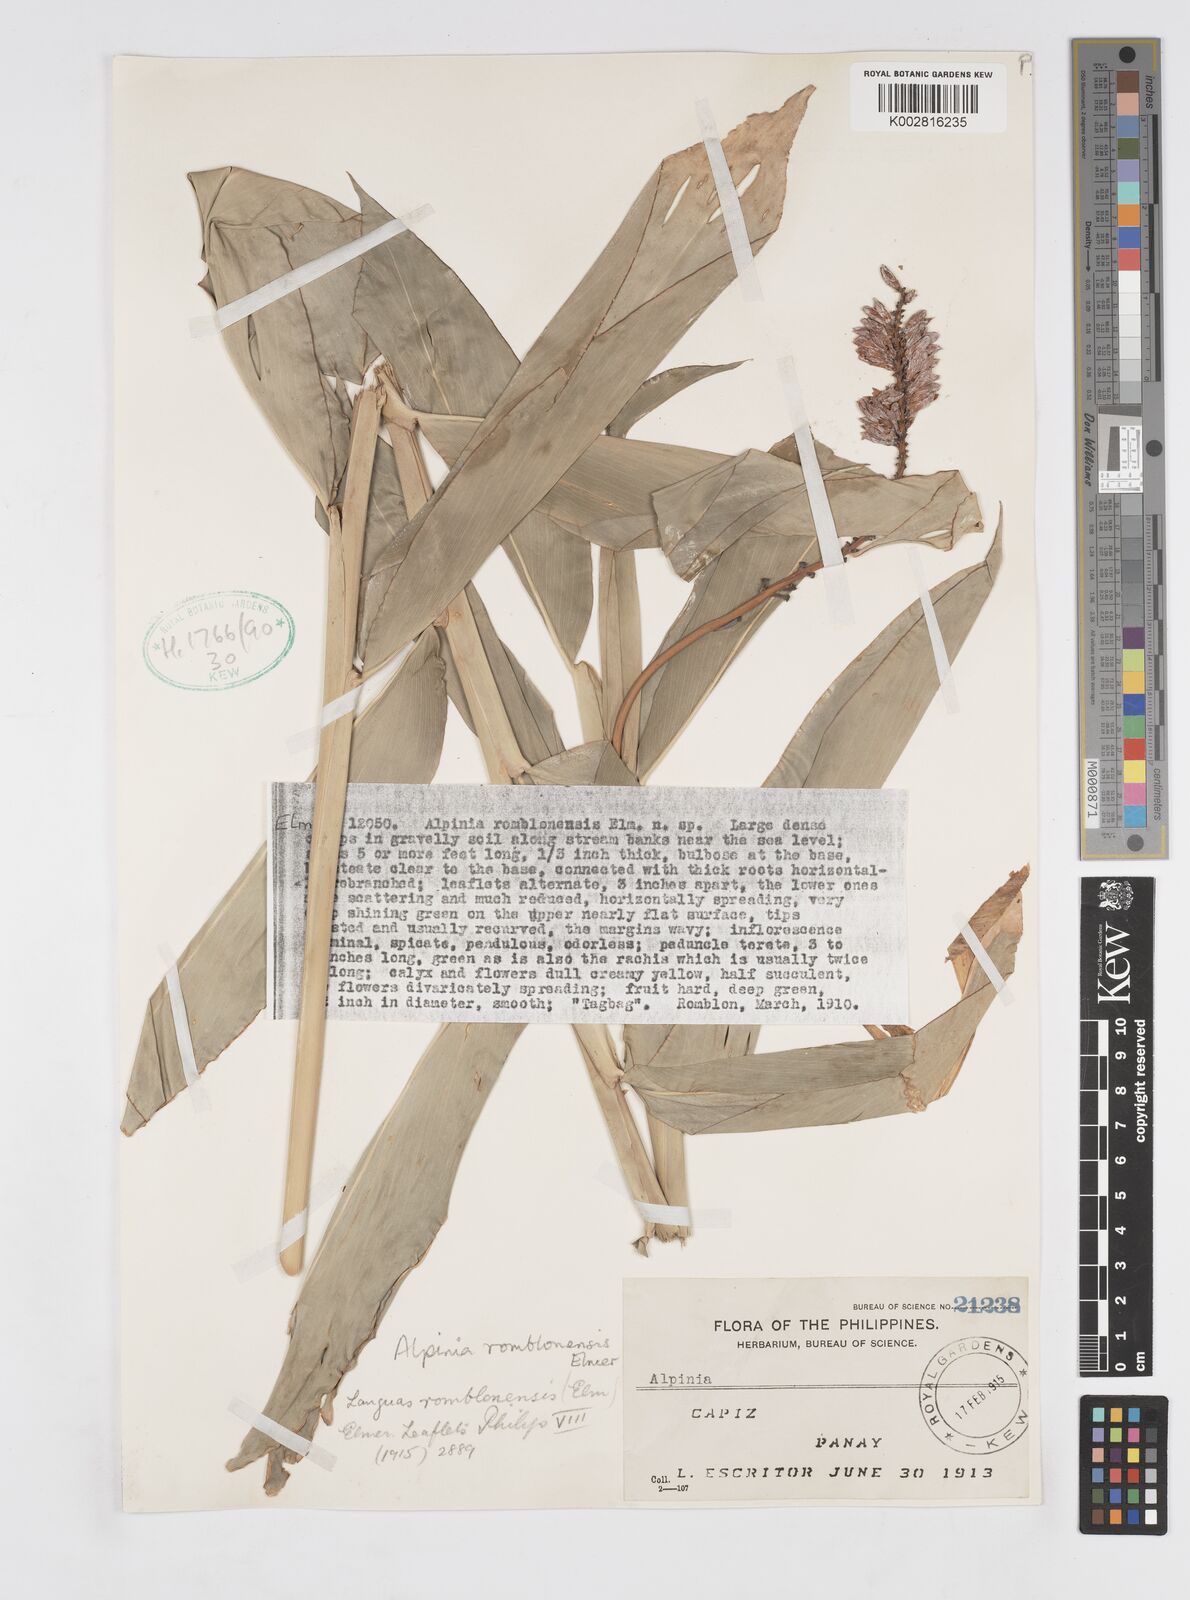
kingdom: Plantae
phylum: Tracheophyta
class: Liliopsida
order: Zingiberales
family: Zingiberaceae
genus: Alpinia
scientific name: Alpinia romblonensis
